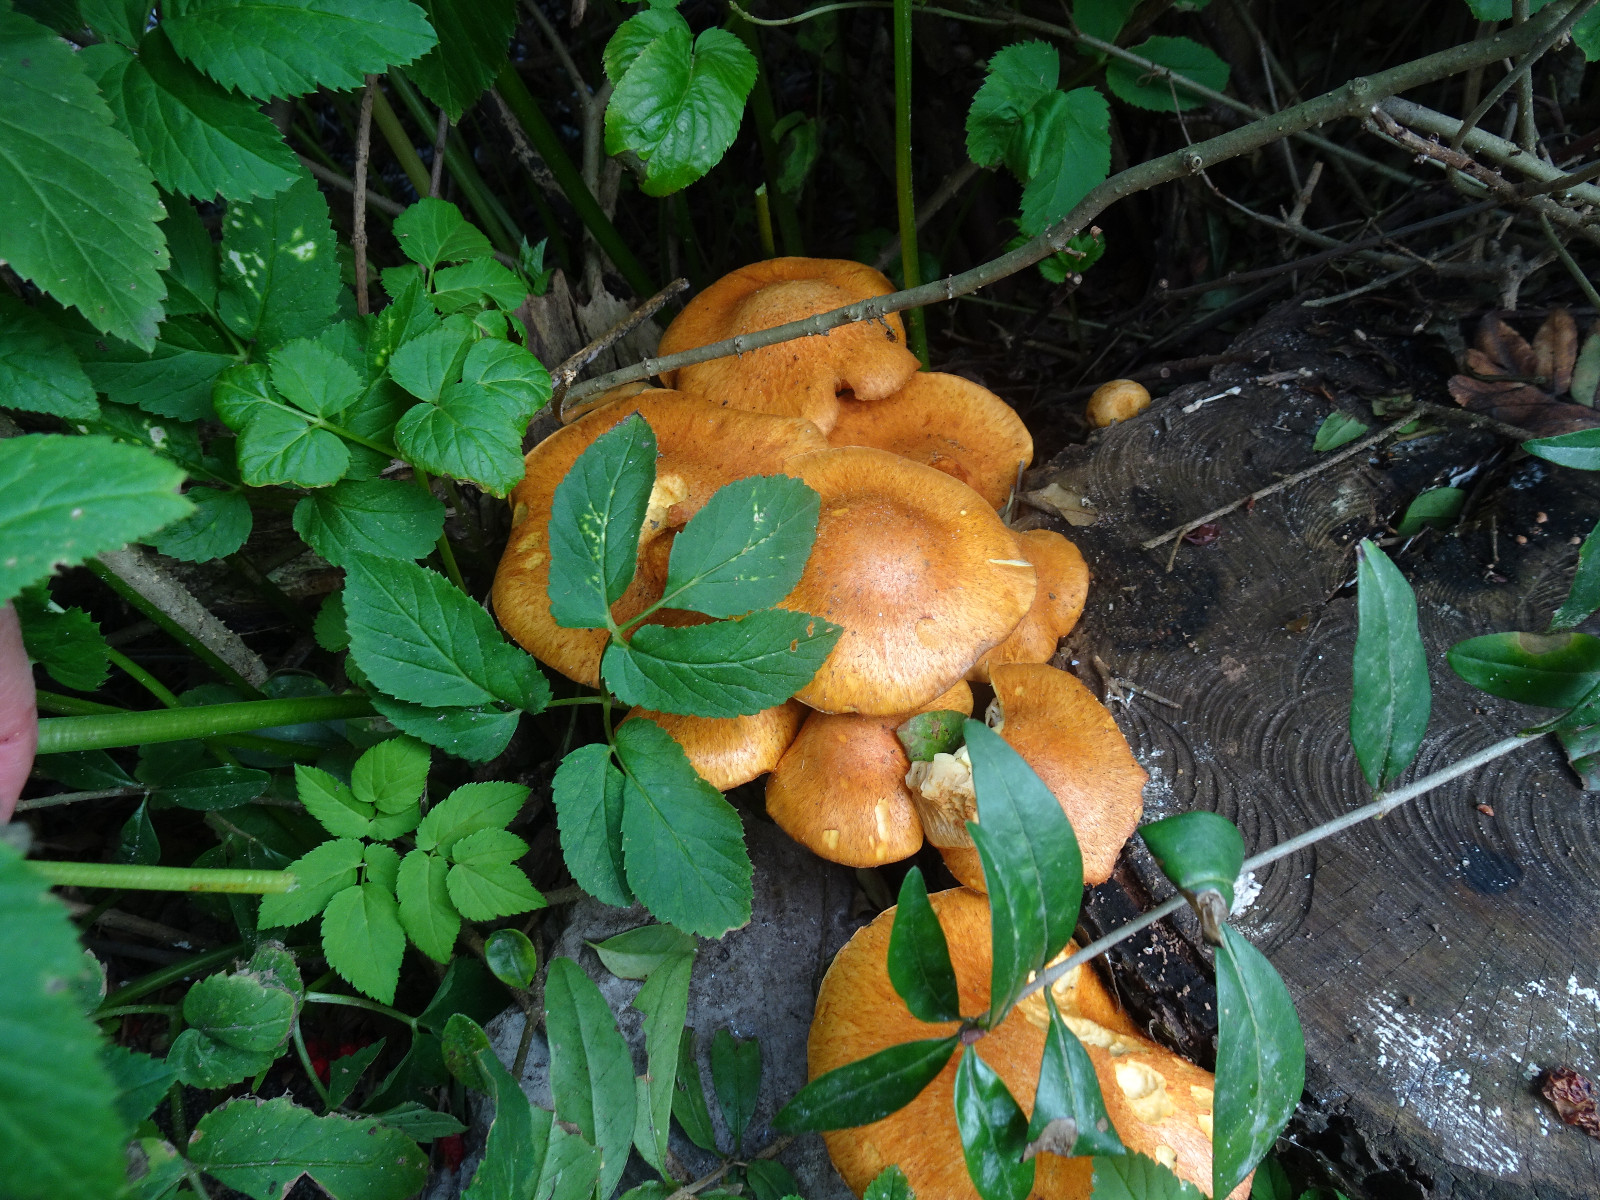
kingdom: Fungi
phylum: Basidiomycota
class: Agaricomycetes
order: Agaricales
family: Hymenogastraceae
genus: Gymnopilus
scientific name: Gymnopilus spectabilis
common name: fibret flammehat
